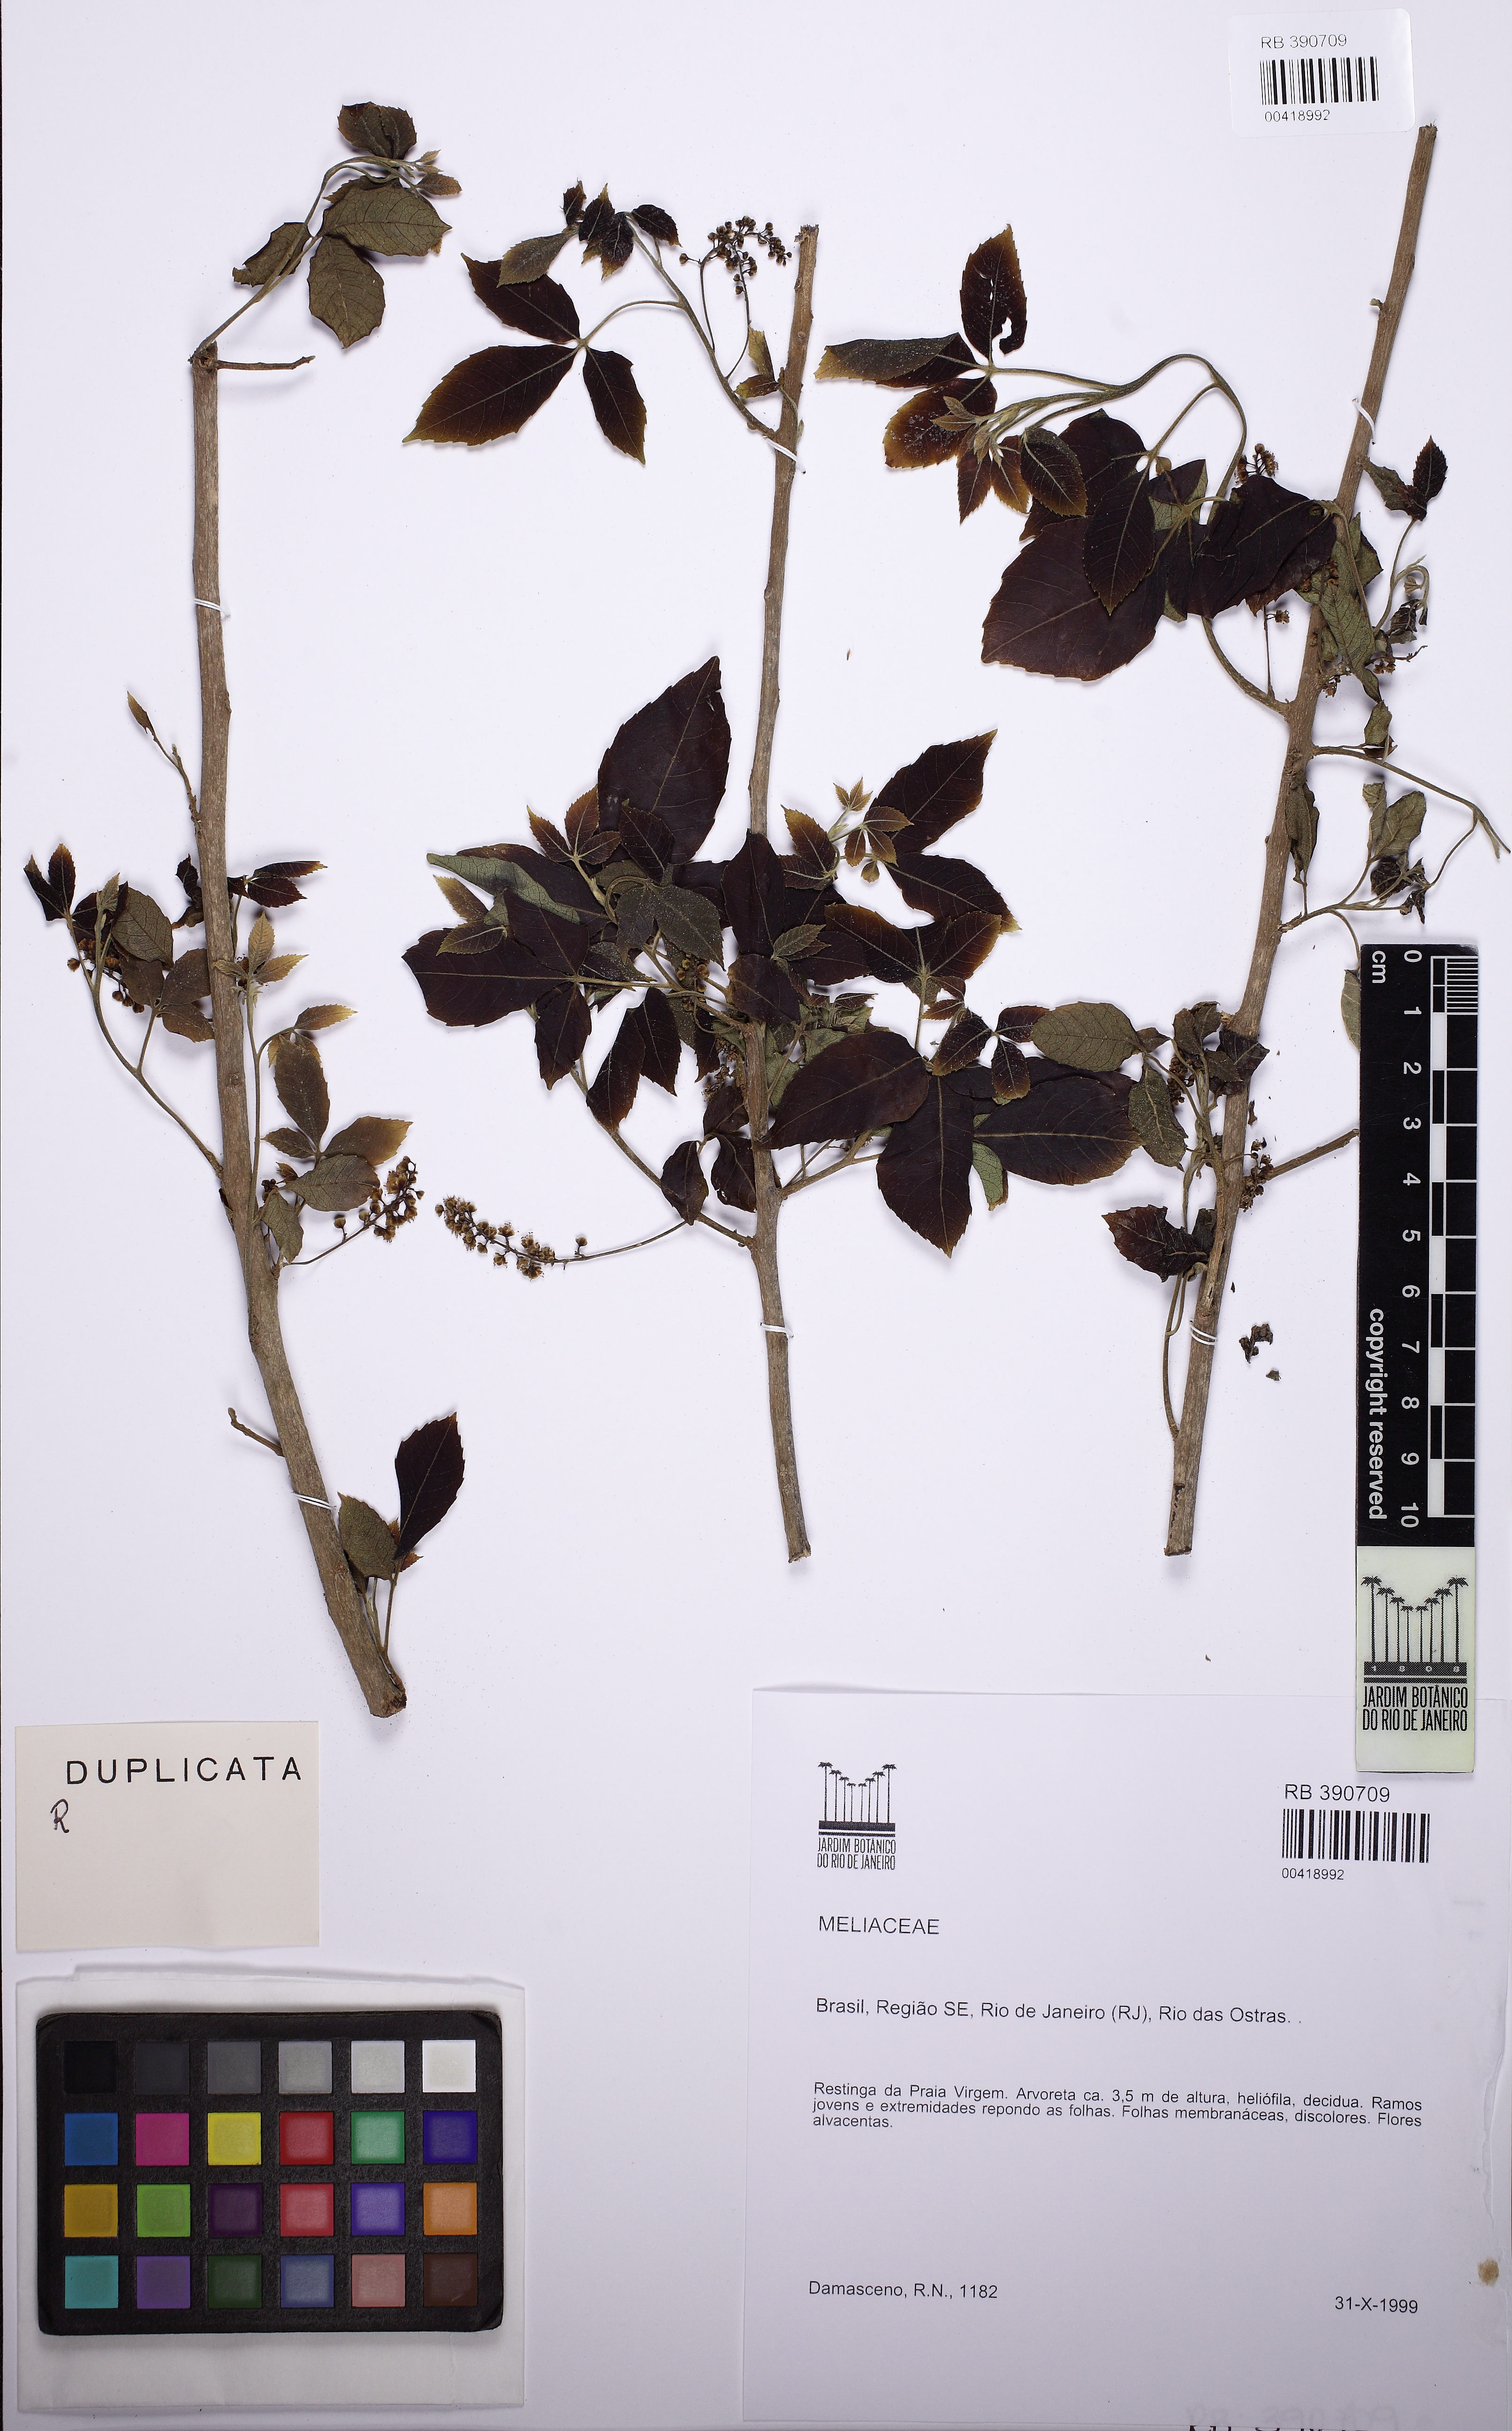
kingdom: Plantae
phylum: Tracheophyta
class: Magnoliopsida
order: Sapindales
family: Sapindaceae
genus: Allophylus
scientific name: Allophylus
